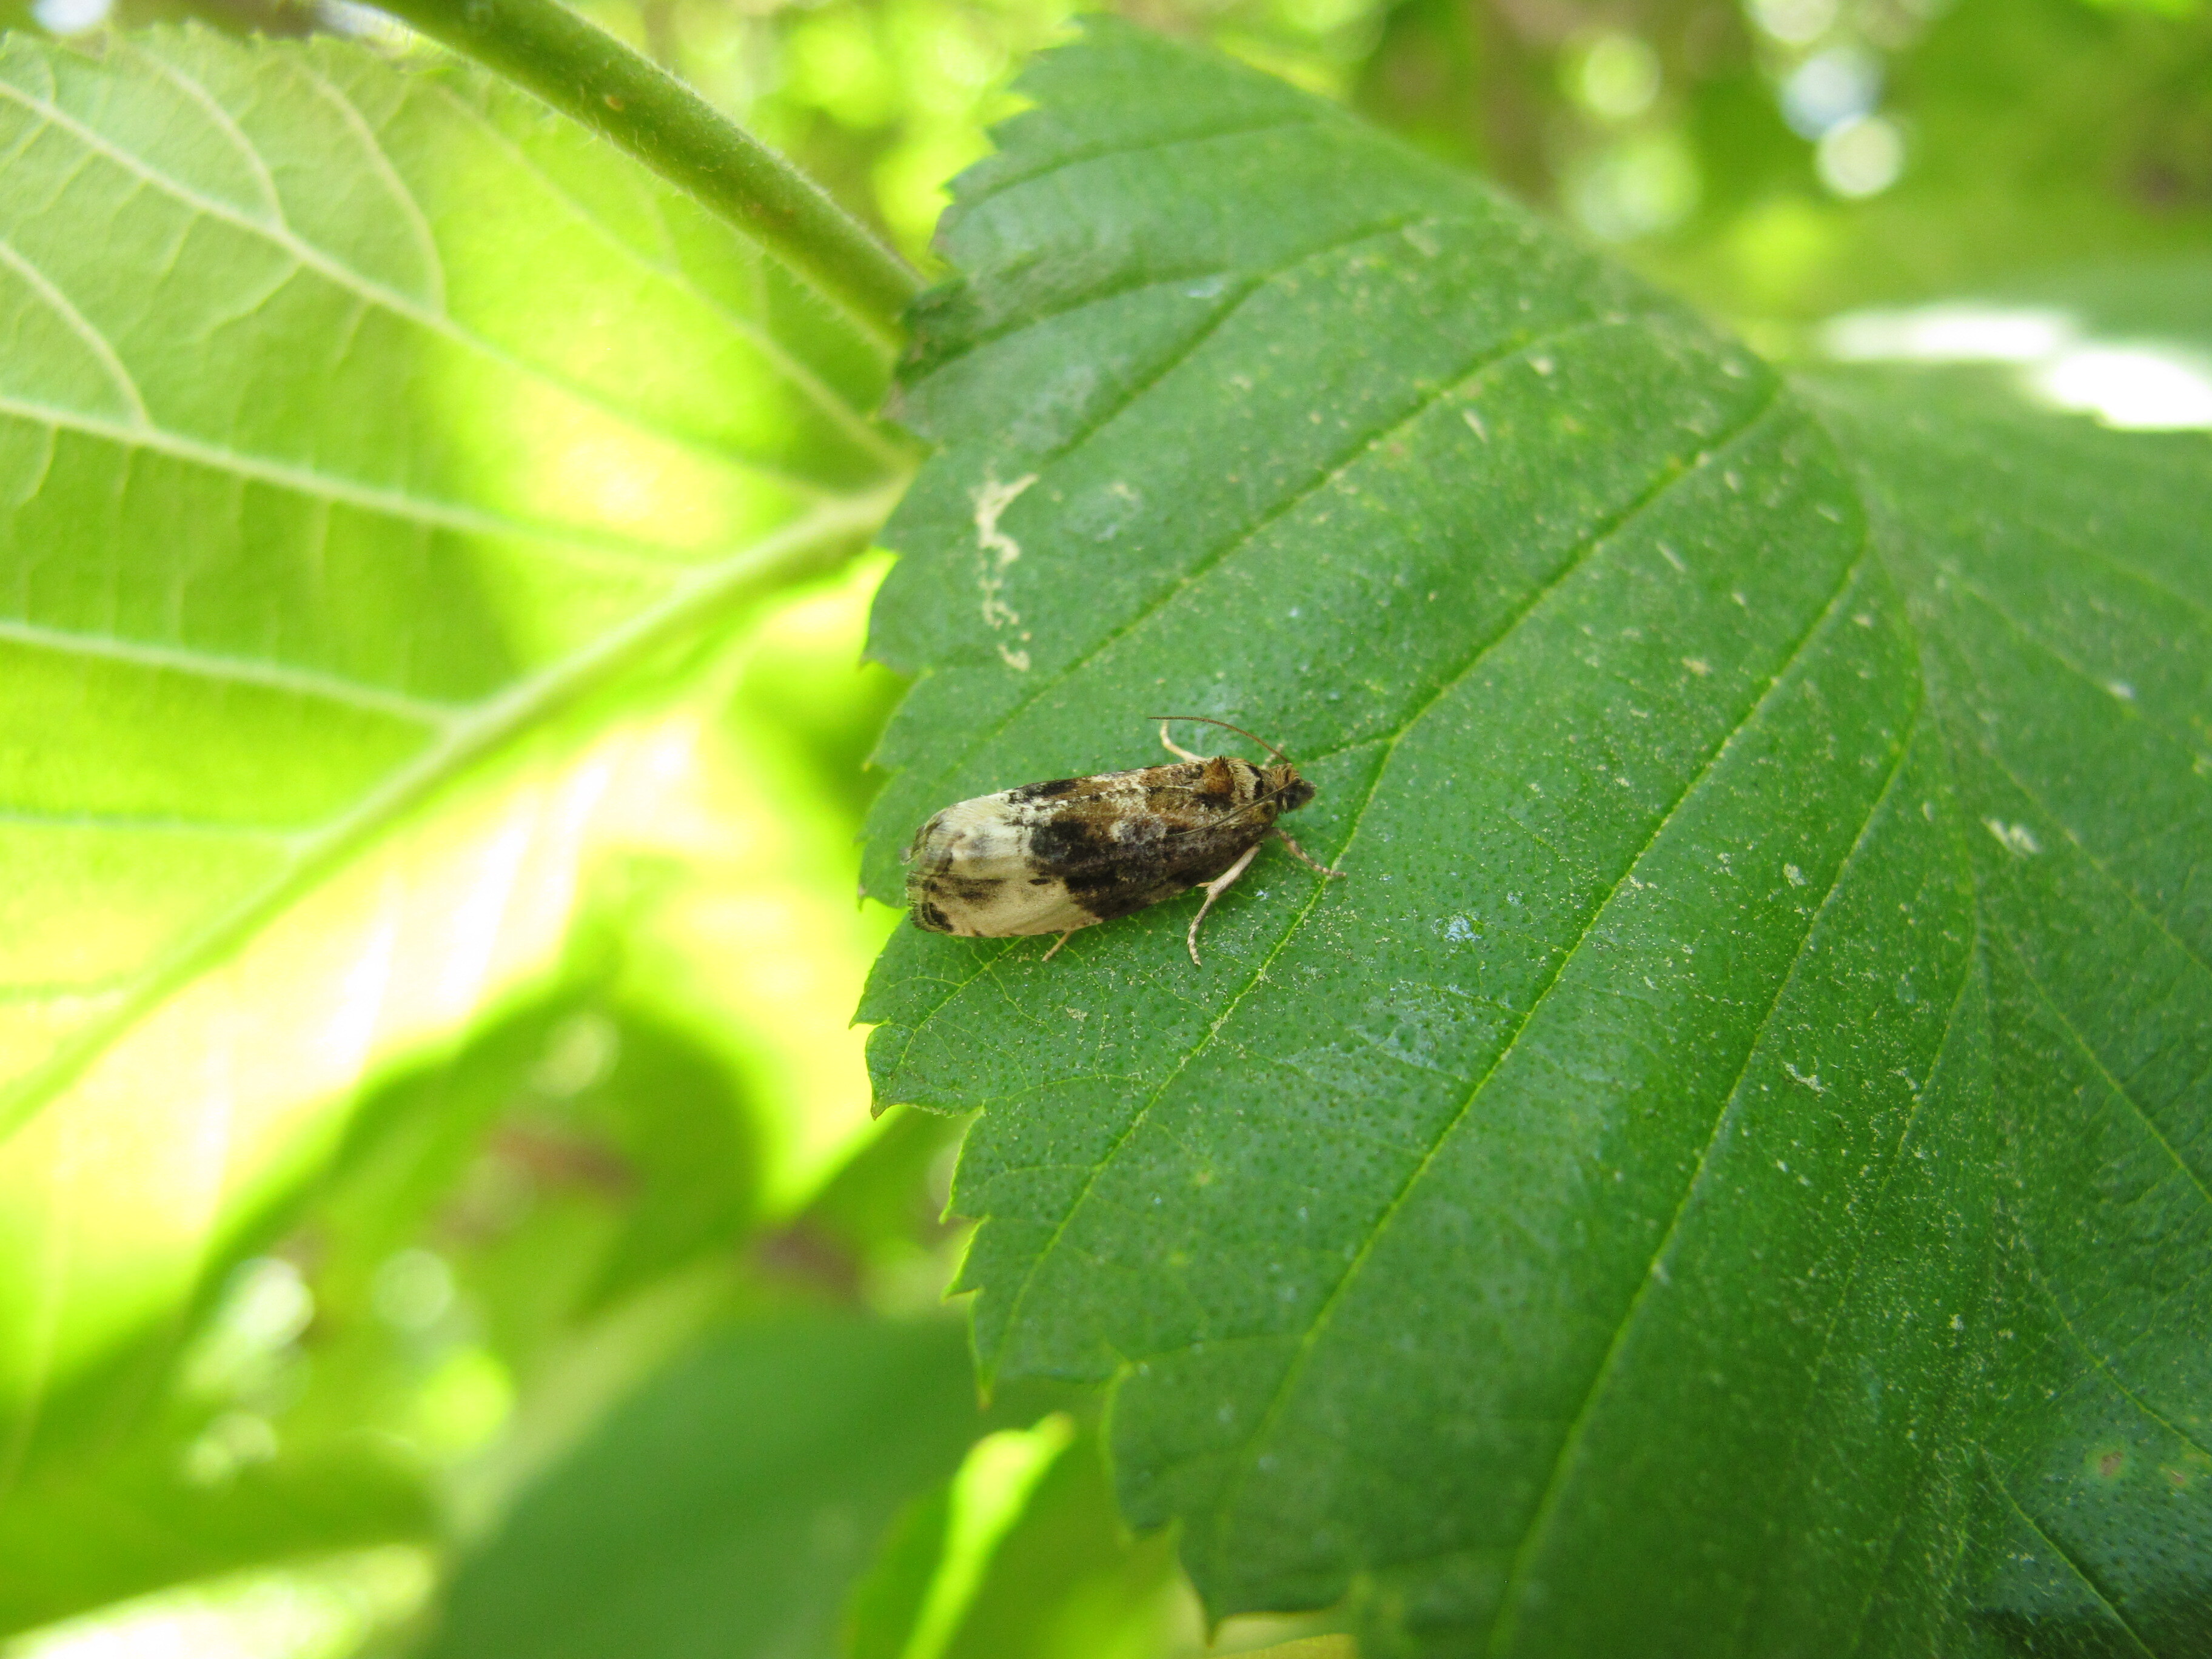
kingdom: Animalia
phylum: Arthropoda
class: Insecta
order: Lepidoptera
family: Tortricidae
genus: Hedya
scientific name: Hedya nubiferana
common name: Marbled orchard tortrix
